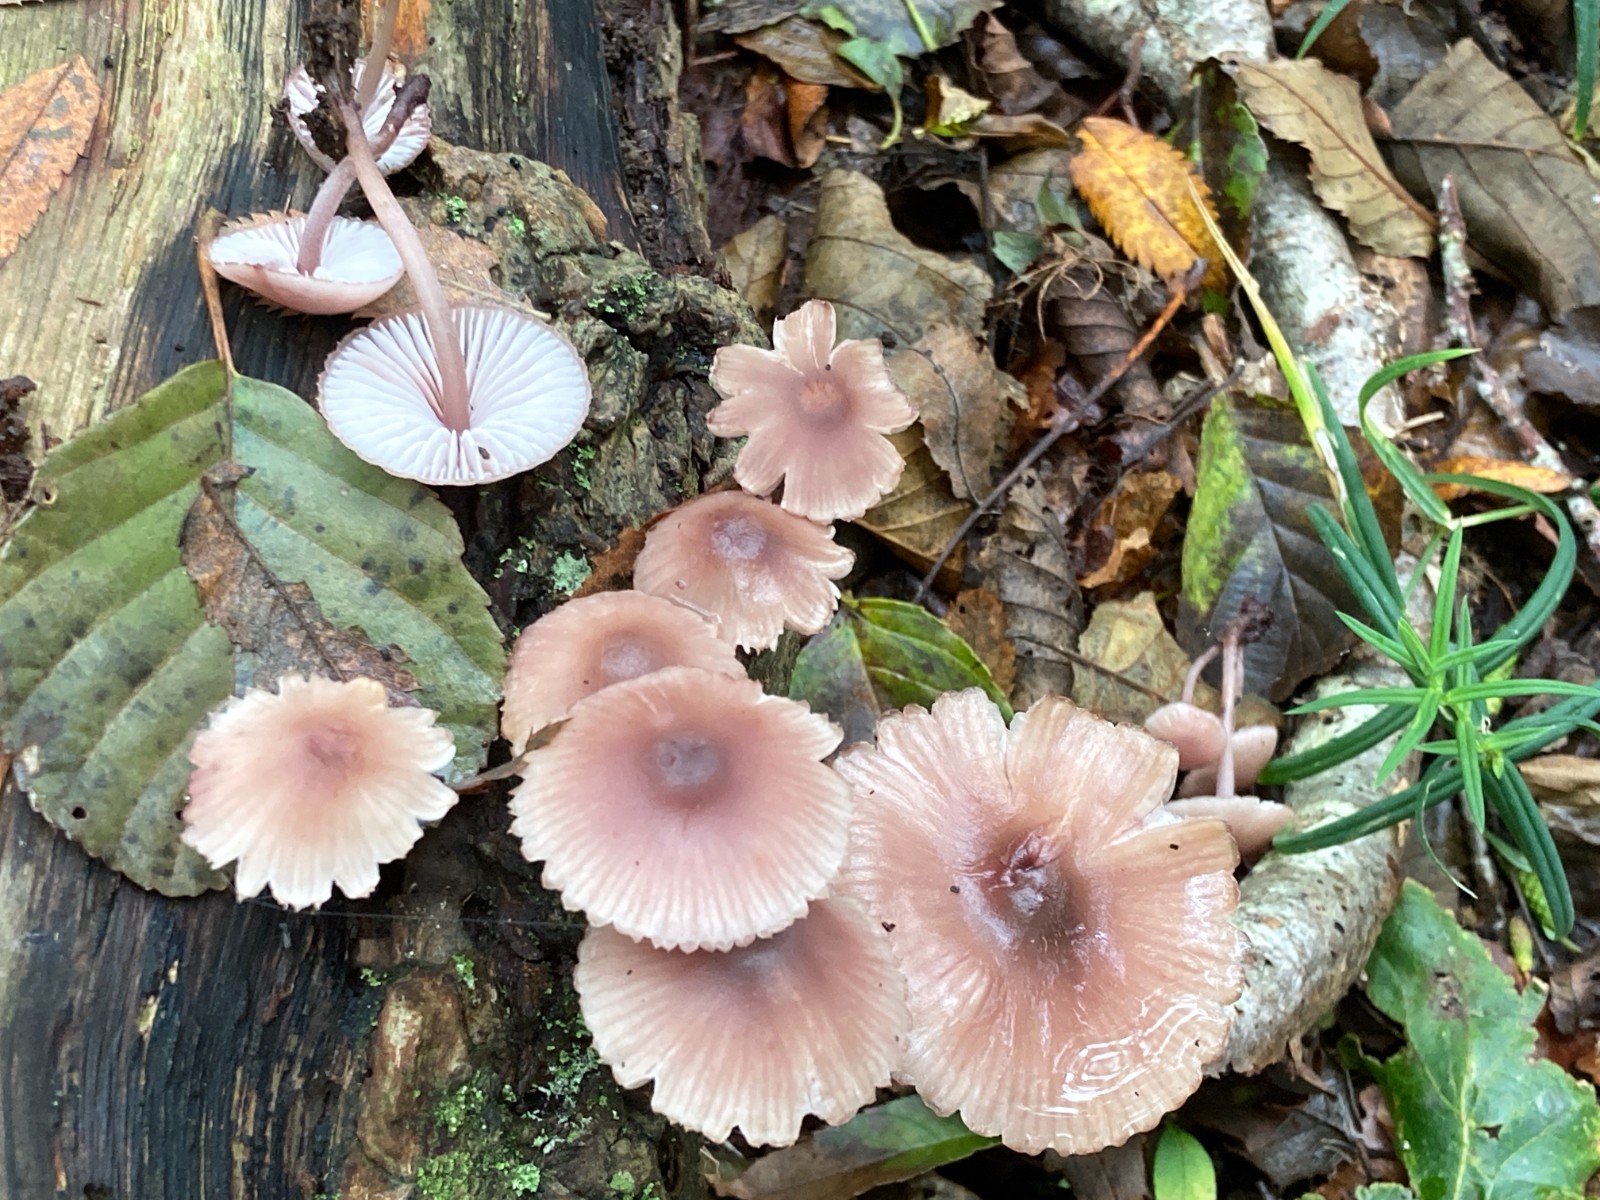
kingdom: Fungi
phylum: Basidiomycota
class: Agaricomycetes
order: Agaricales
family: Mycenaceae
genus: Mycena
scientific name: Mycena haematopus
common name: blødende huesvamp
